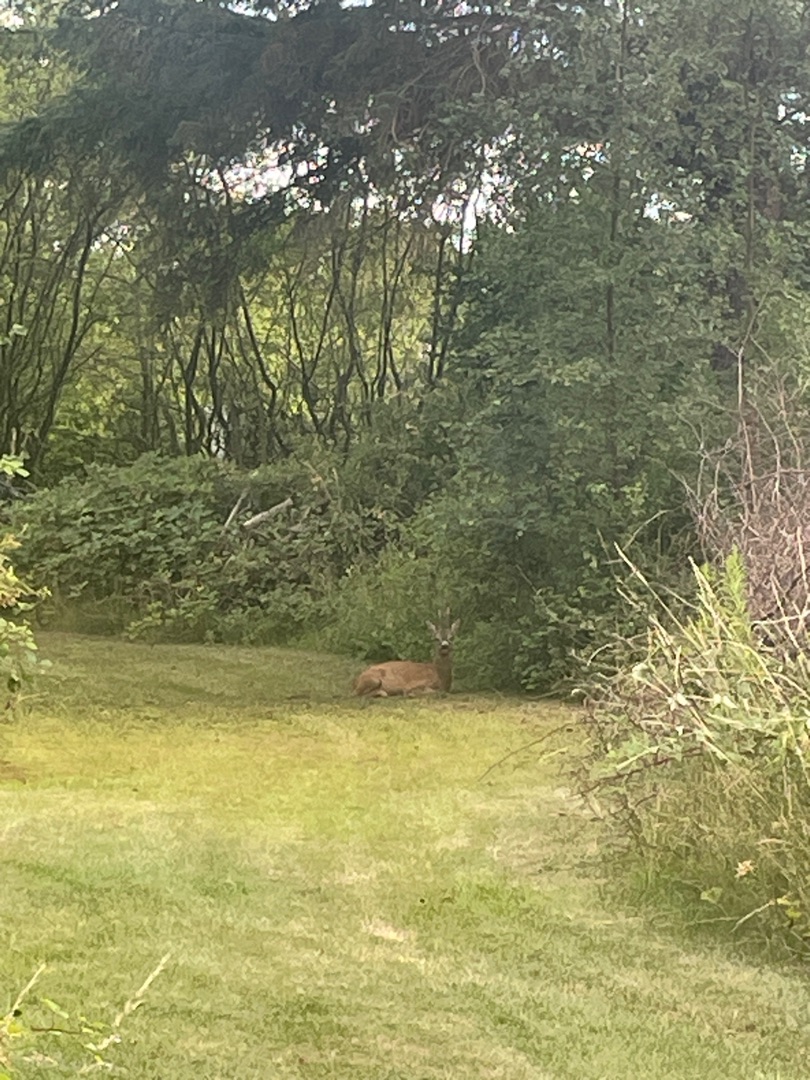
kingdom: Animalia
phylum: Chordata
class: Mammalia
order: Artiodactyla
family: Cervidae
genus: Capreolus
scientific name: Capreolus capreolus
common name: Rådyr
